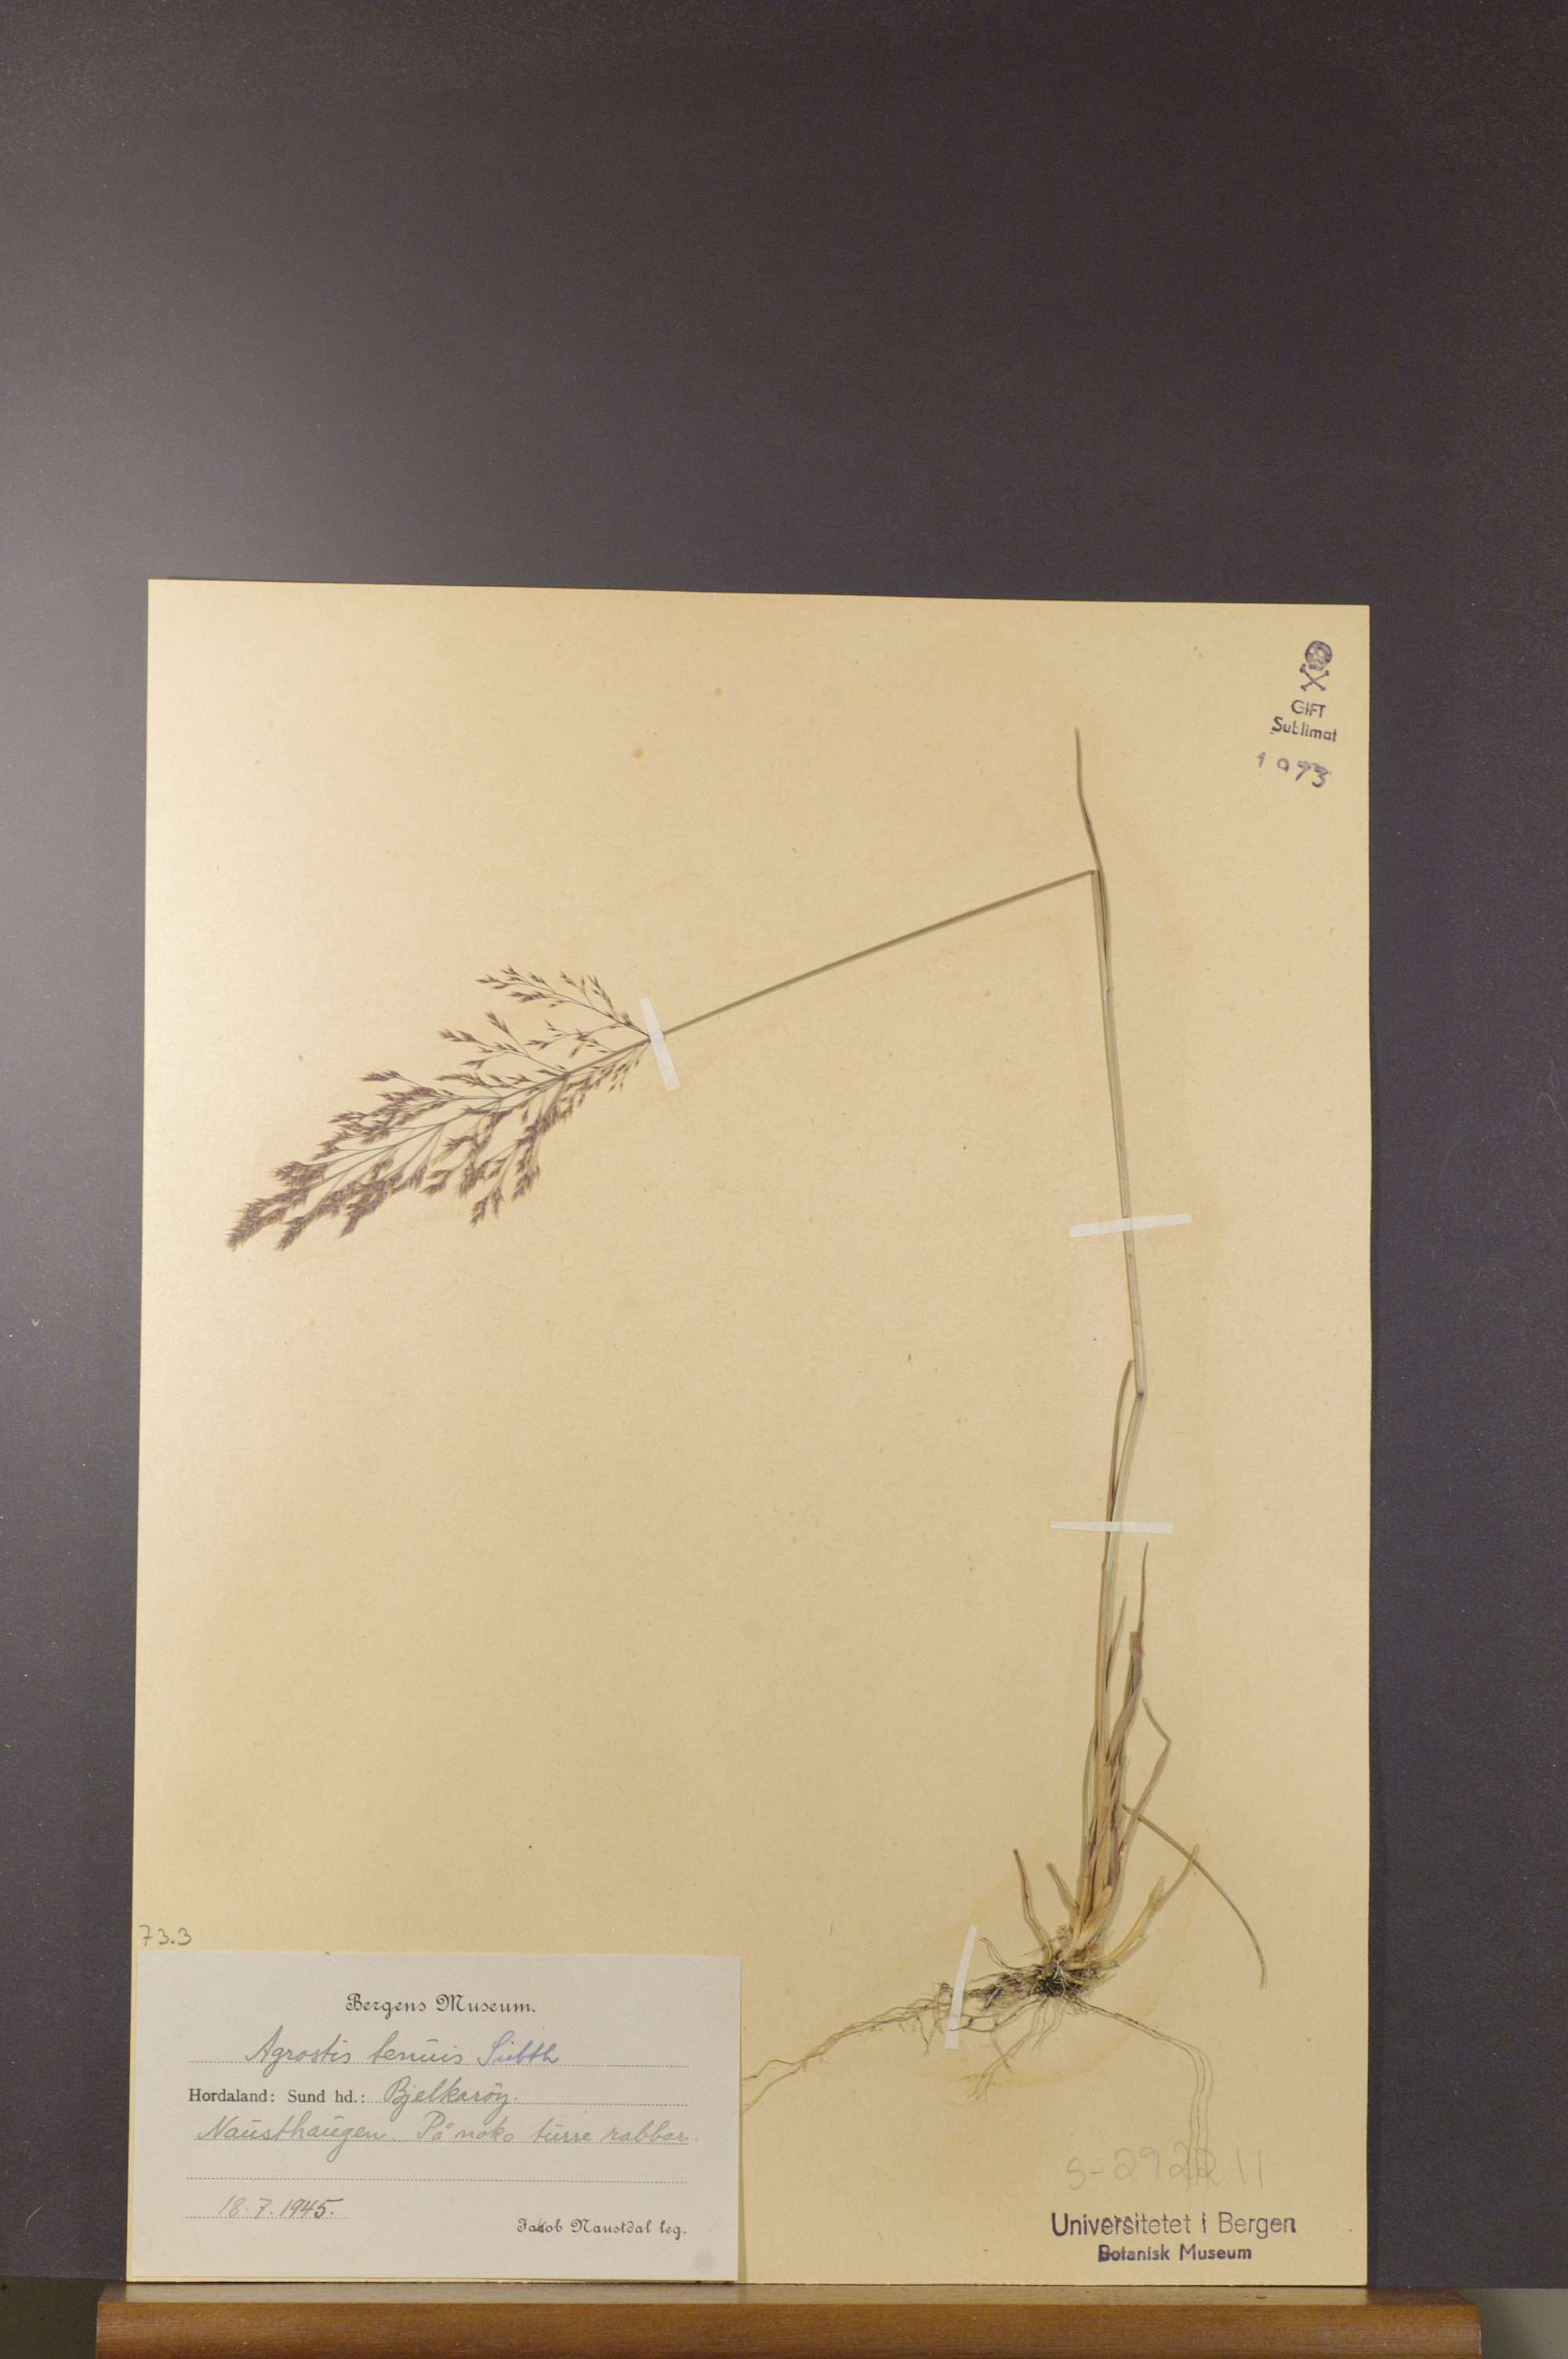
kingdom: Plantae
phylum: Tracheophyta
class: Liliopsida
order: Poales
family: Poaceae
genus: Agrostis
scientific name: Agrostis capillaris
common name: Colonial bentgrass
